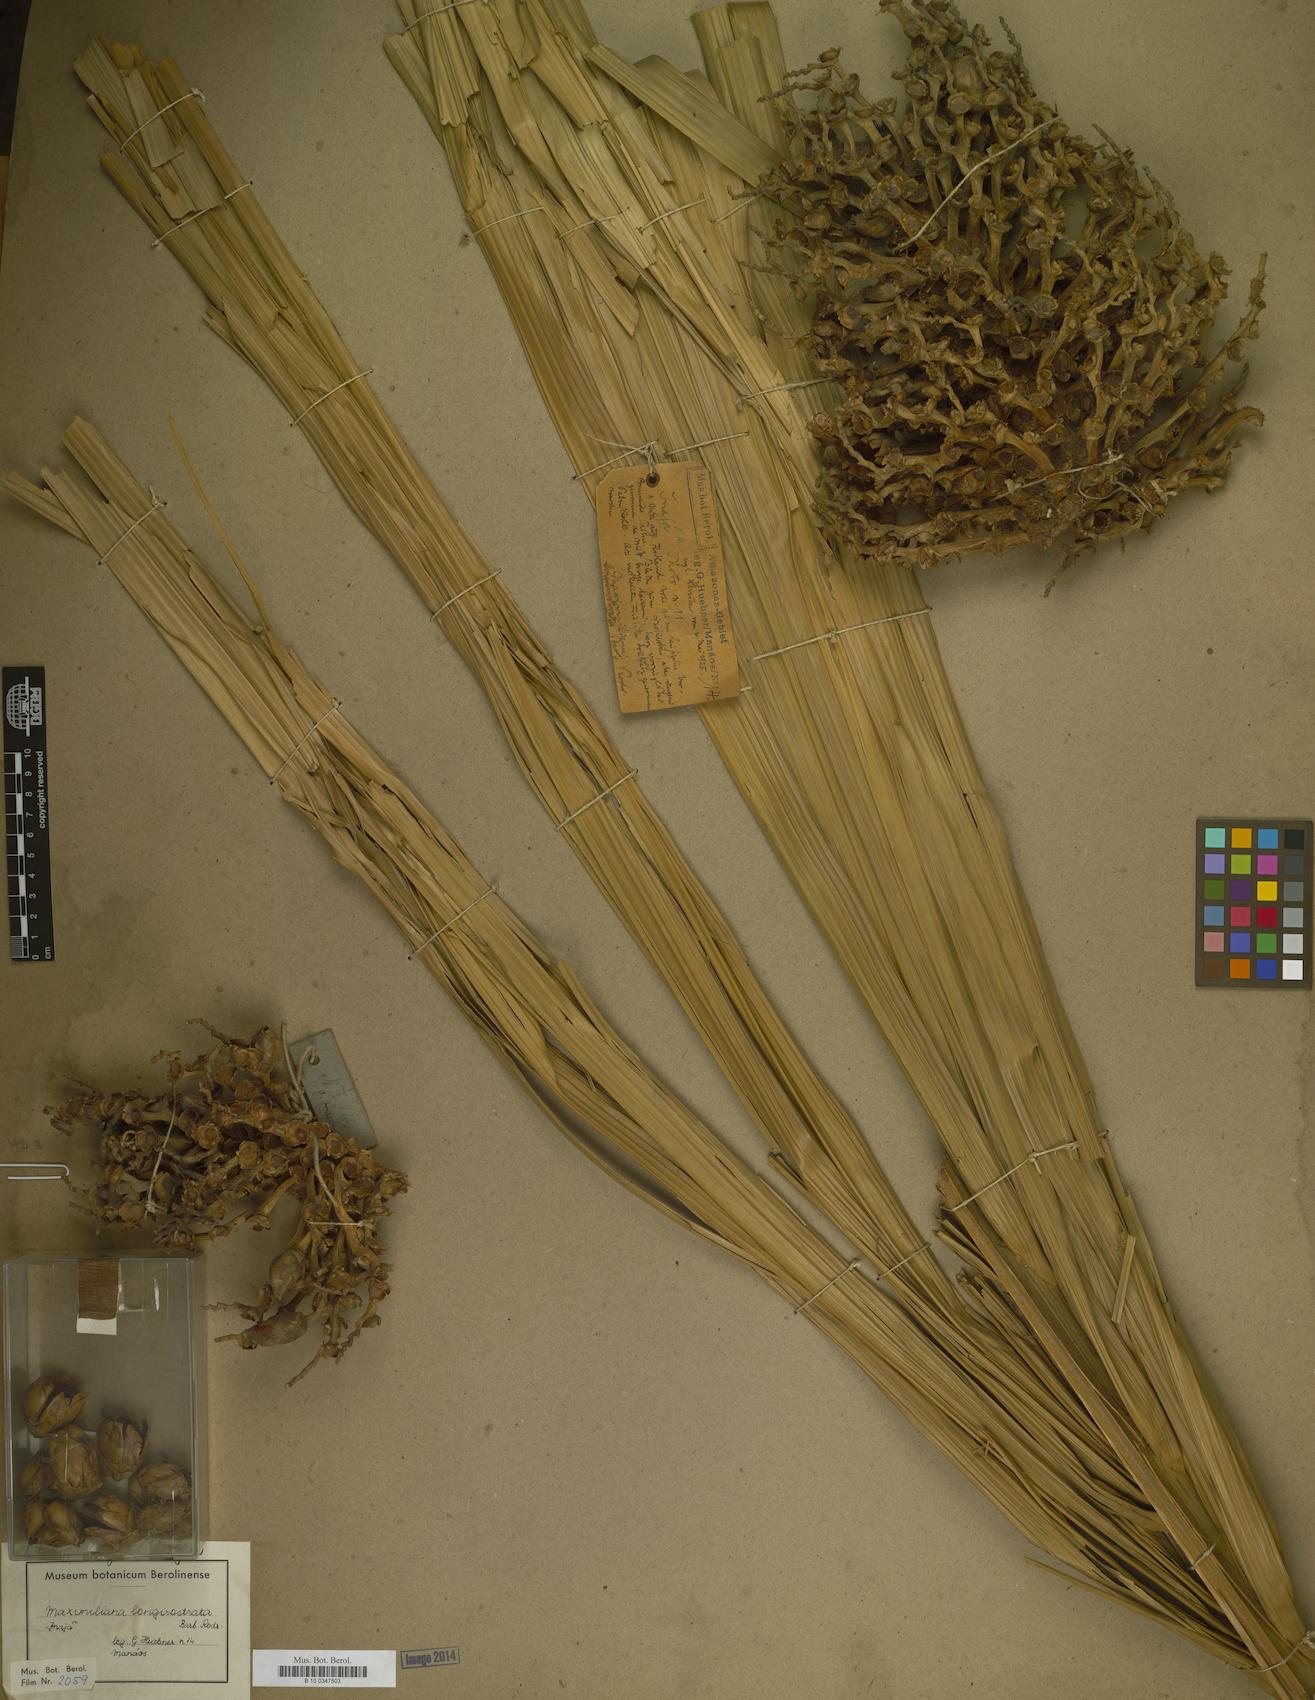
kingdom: Plantae
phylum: Tracheophyta
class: Liliopsida
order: Arecales
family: Arecaceae
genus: Attalea
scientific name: Attalea maripa
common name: Maripa palm
